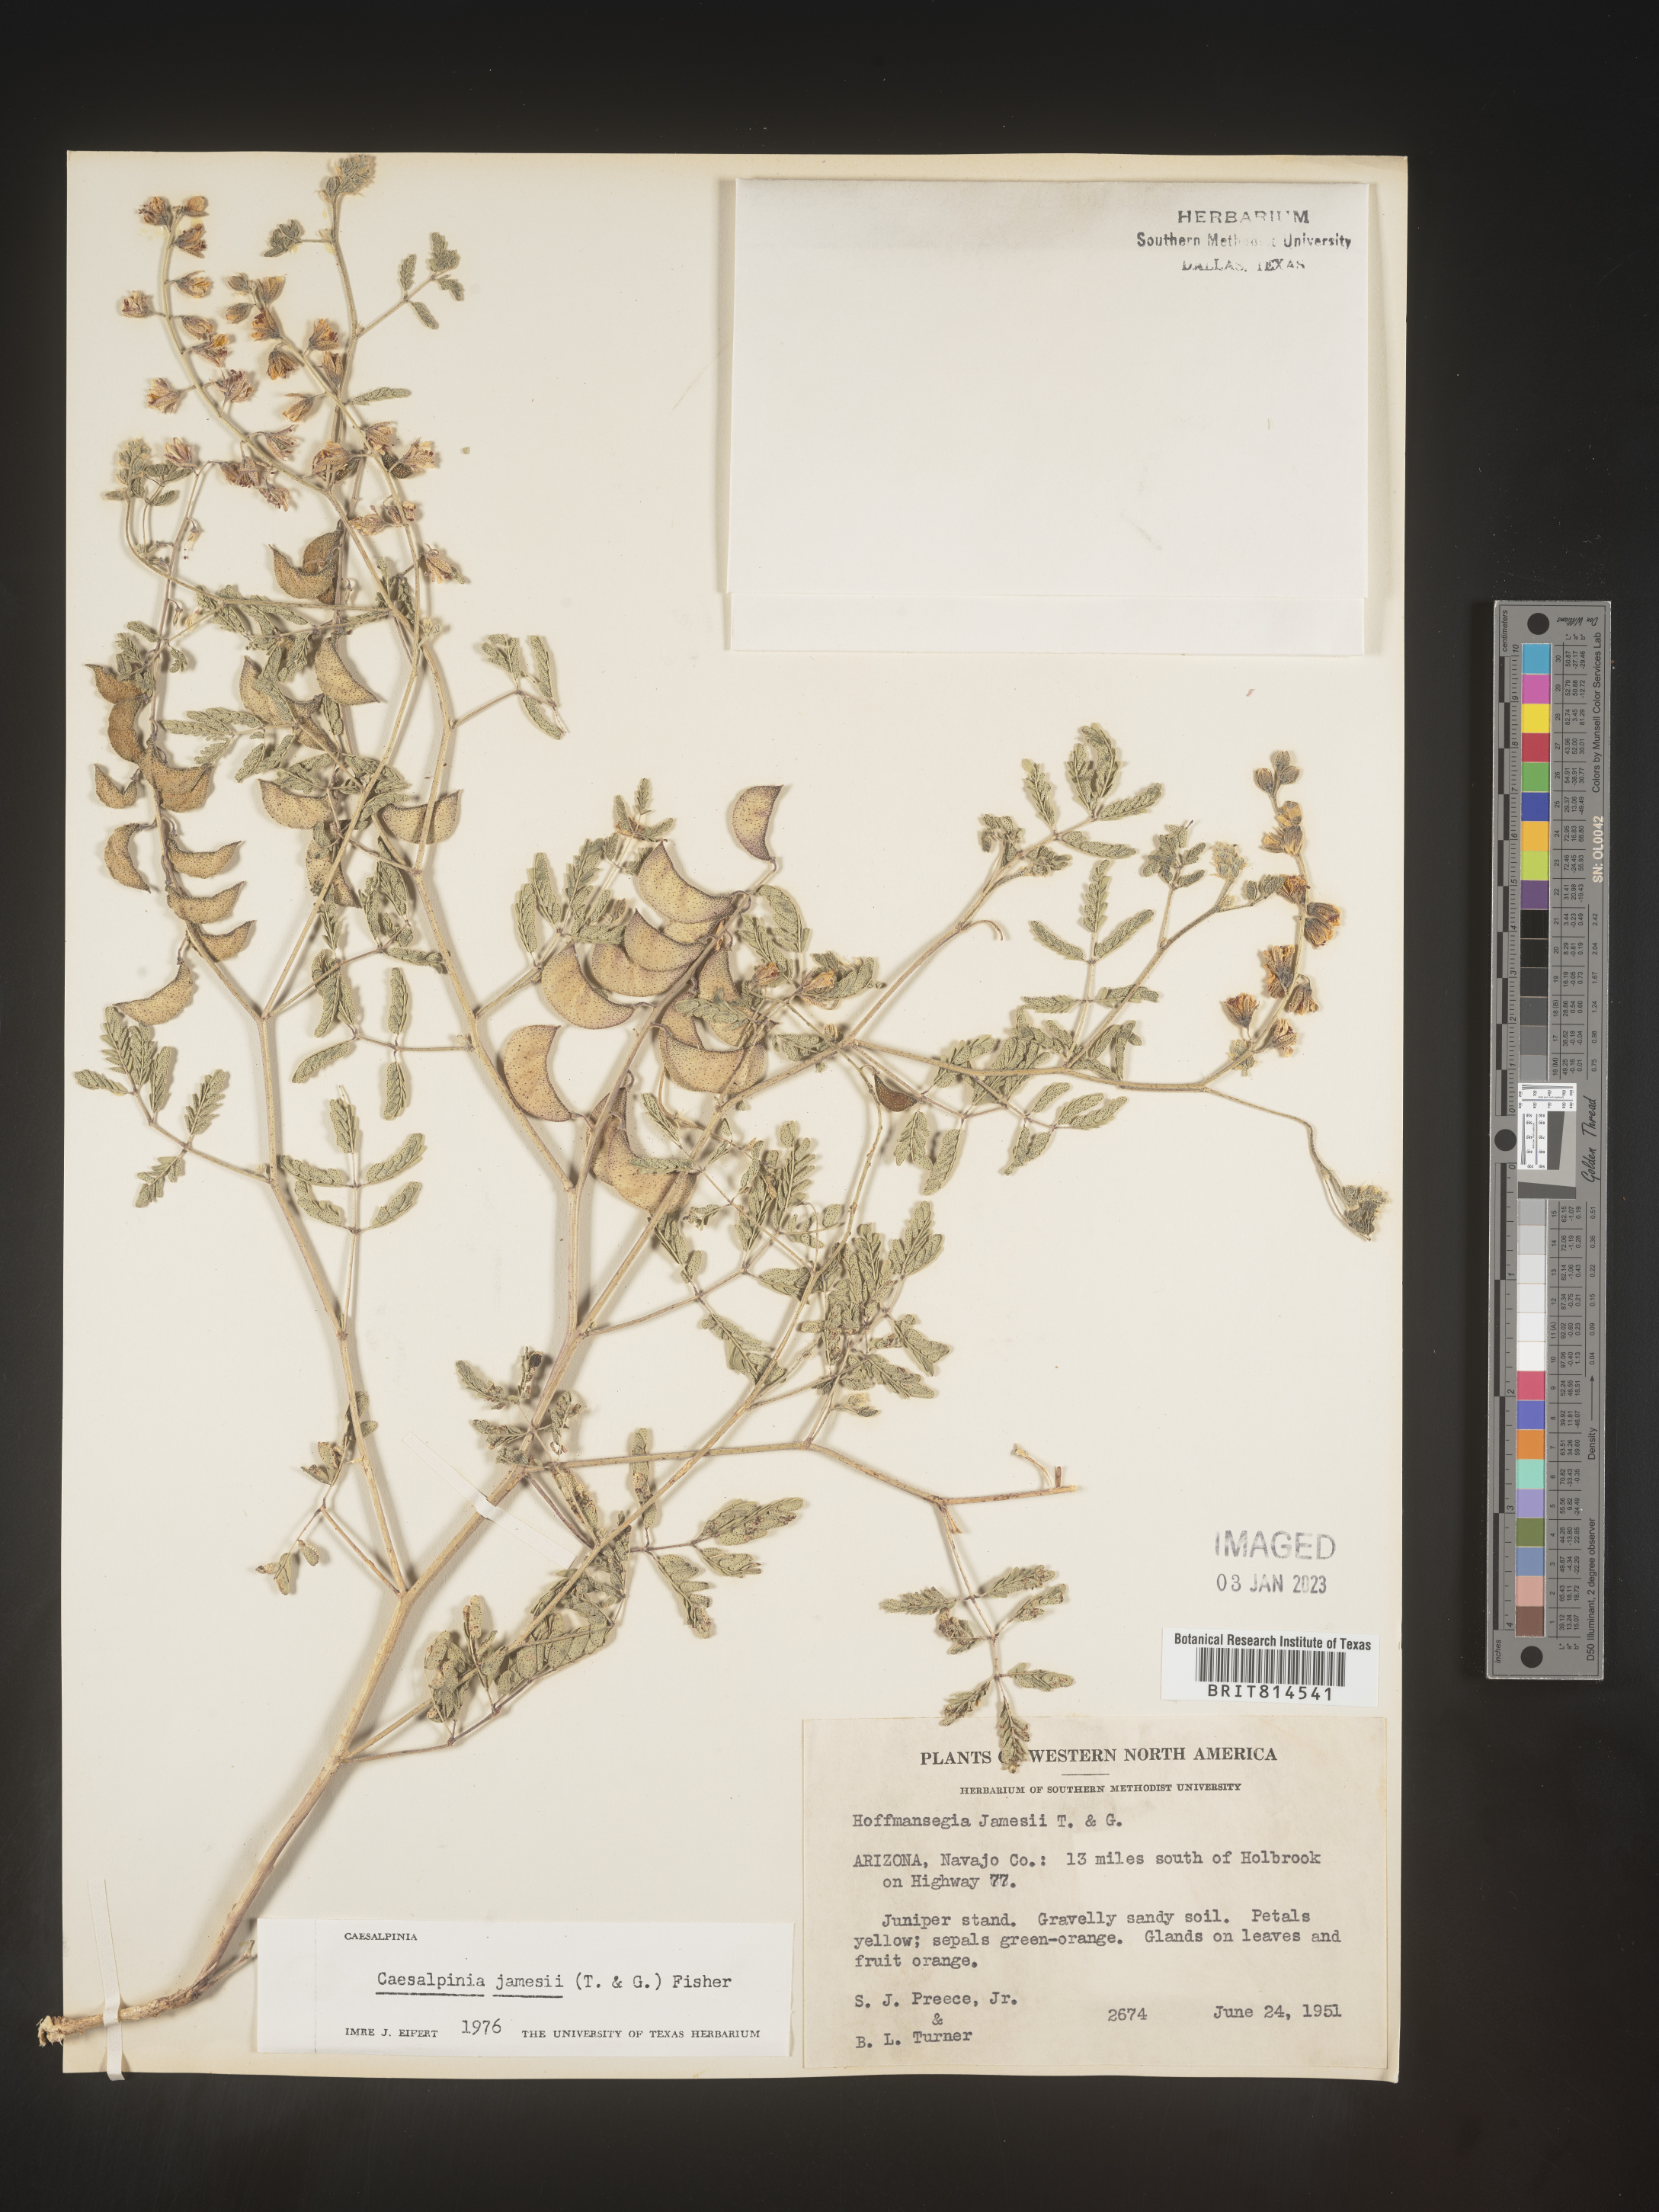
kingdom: Plantae
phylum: Tracheophyta
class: Magnoliopsida
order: Fabales
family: Fabaceae
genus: Caesalpinia
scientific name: Caesalpinia
